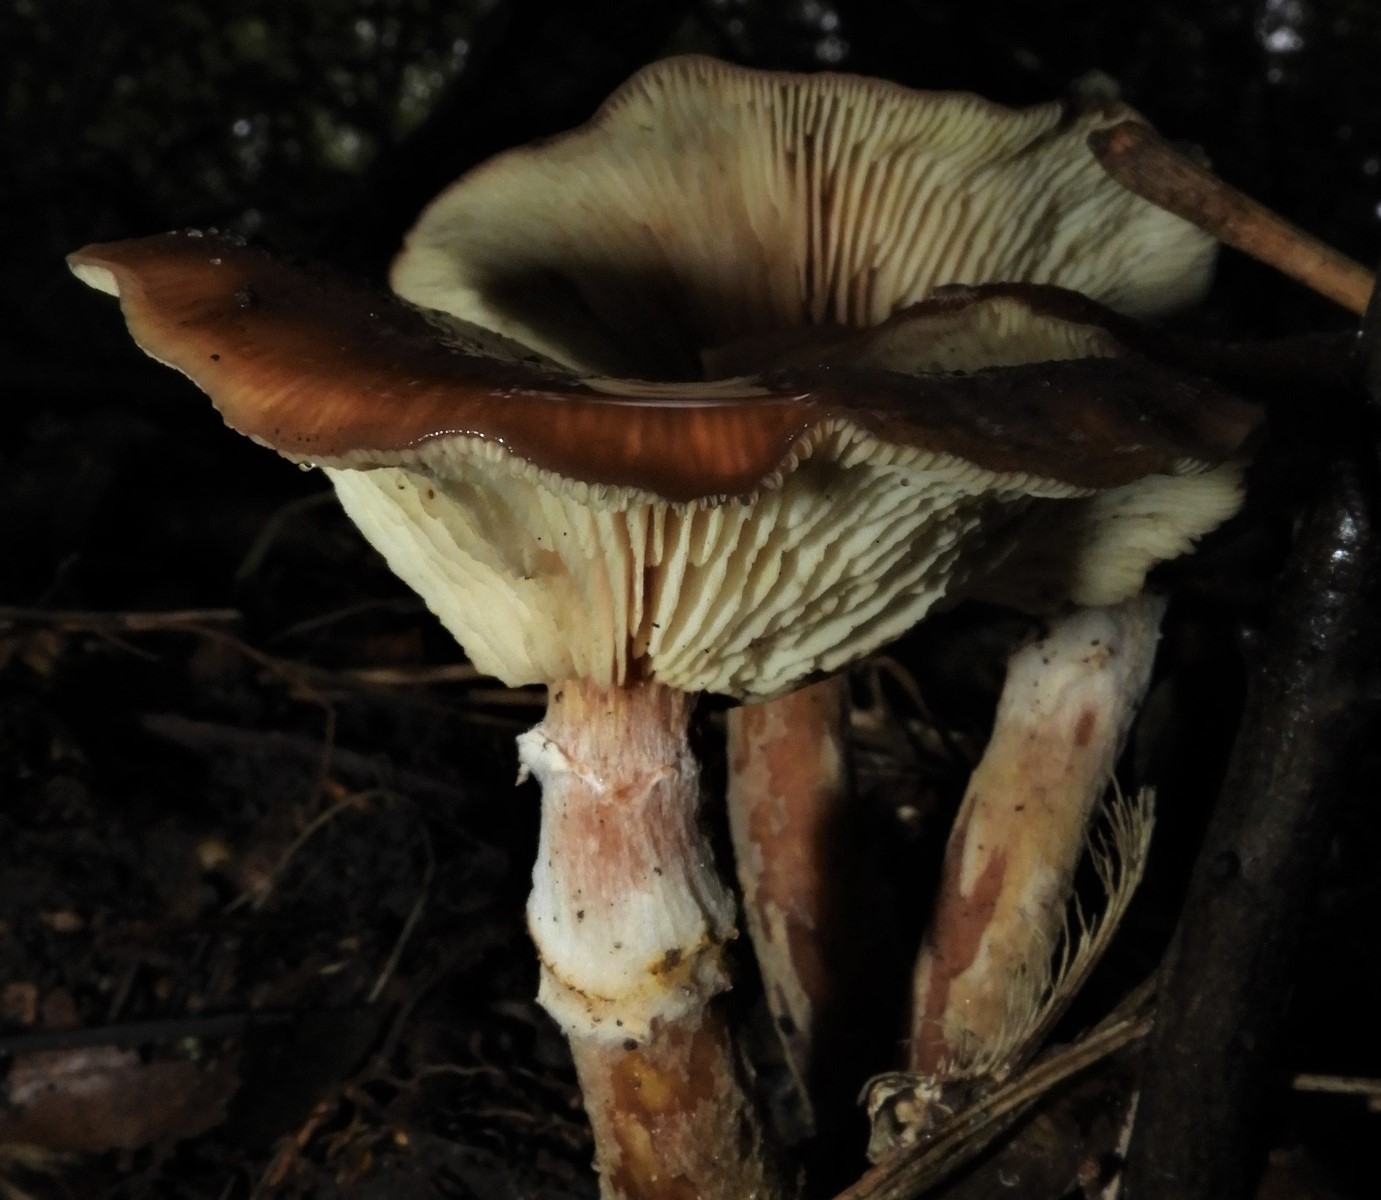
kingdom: Fungi
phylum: Basidiomycota
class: Agaricomycetes
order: Agaricales
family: Physalacriaceae
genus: Armillaria
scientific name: Armillaria lutea
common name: køllestokket honningsvamp
